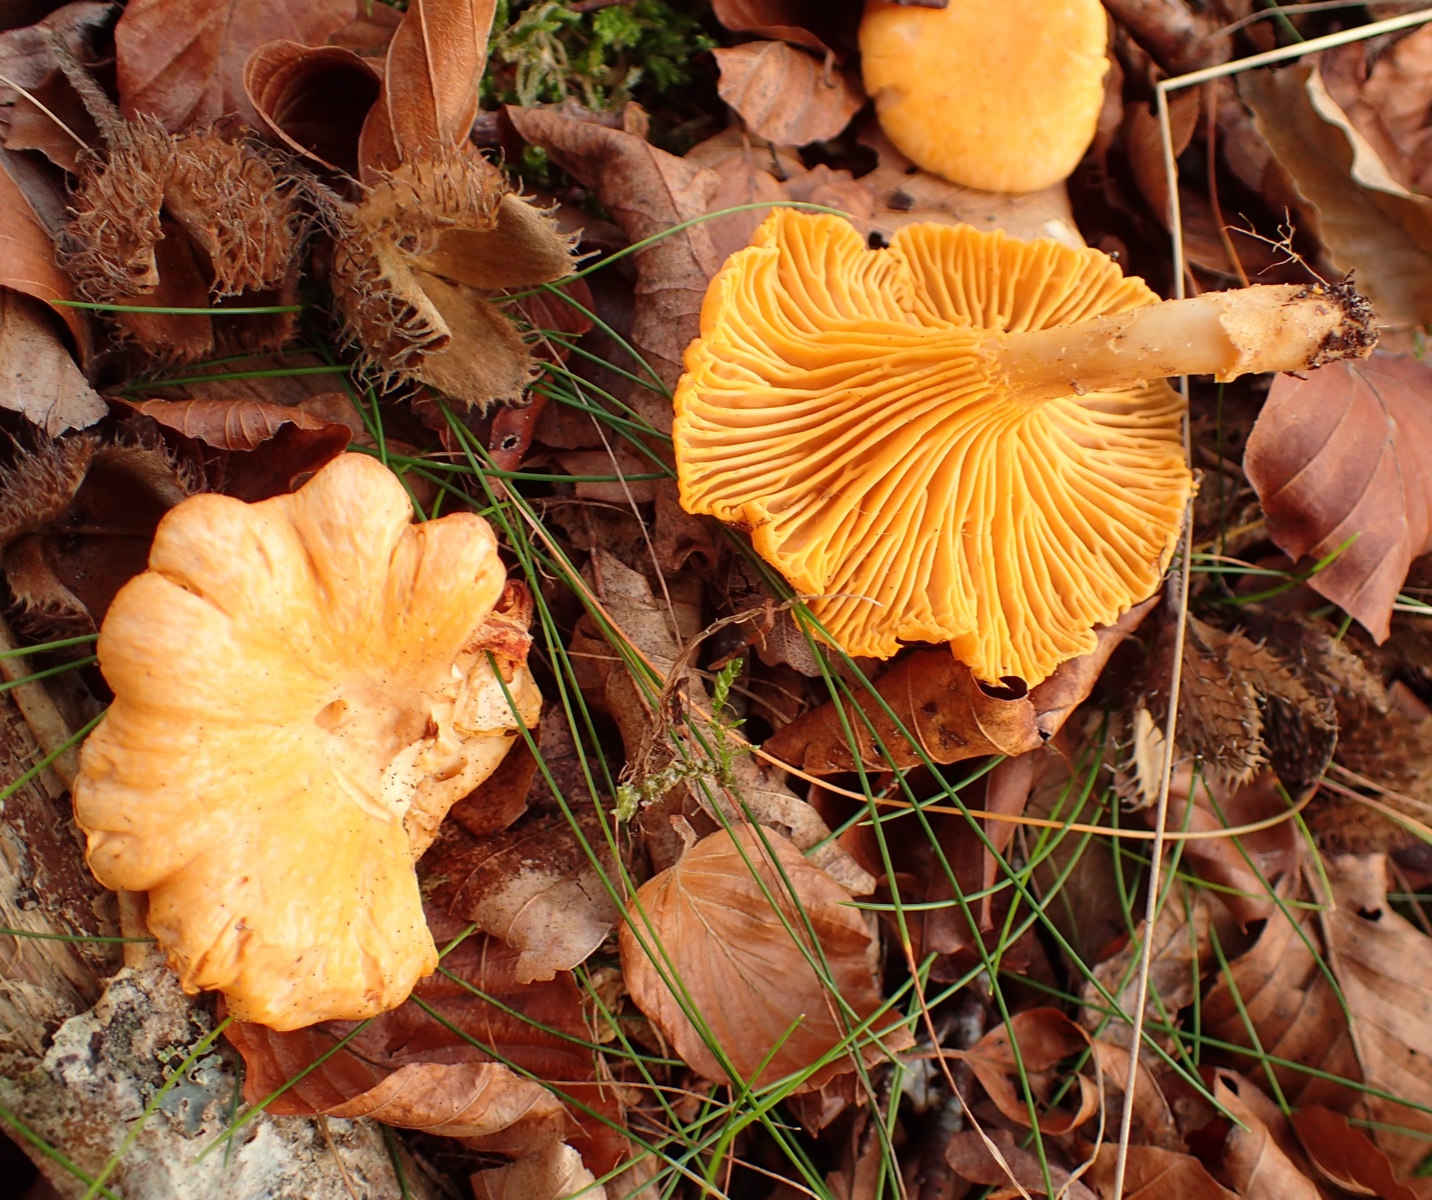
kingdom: Fungi
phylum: Basidiomycota
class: Agaricomycetes
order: Cantharellales
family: Hydnaceae
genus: Cantharellus
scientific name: Cantharellus cibarius
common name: almindelig kantarel
